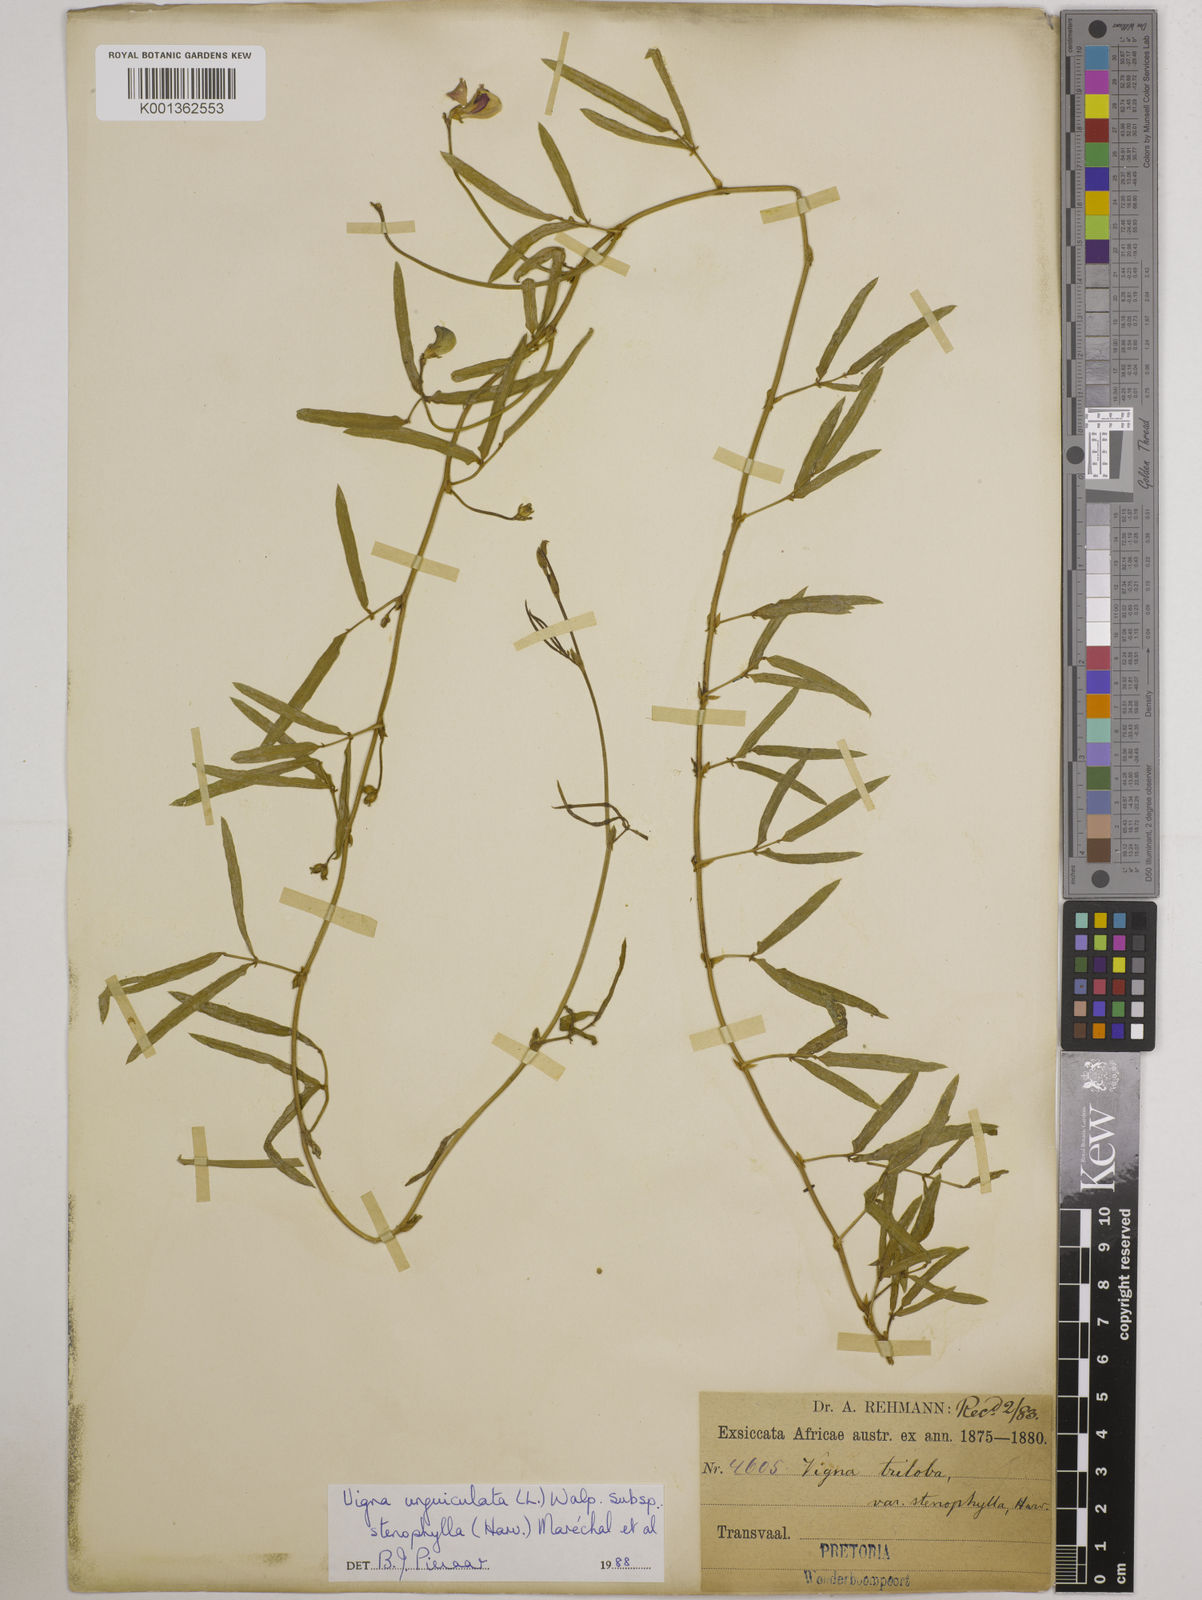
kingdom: Plantae
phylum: Tracheophyta
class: Magnoliopsida
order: Fabales
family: Fabaceae
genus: Vigna
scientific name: Vigna
